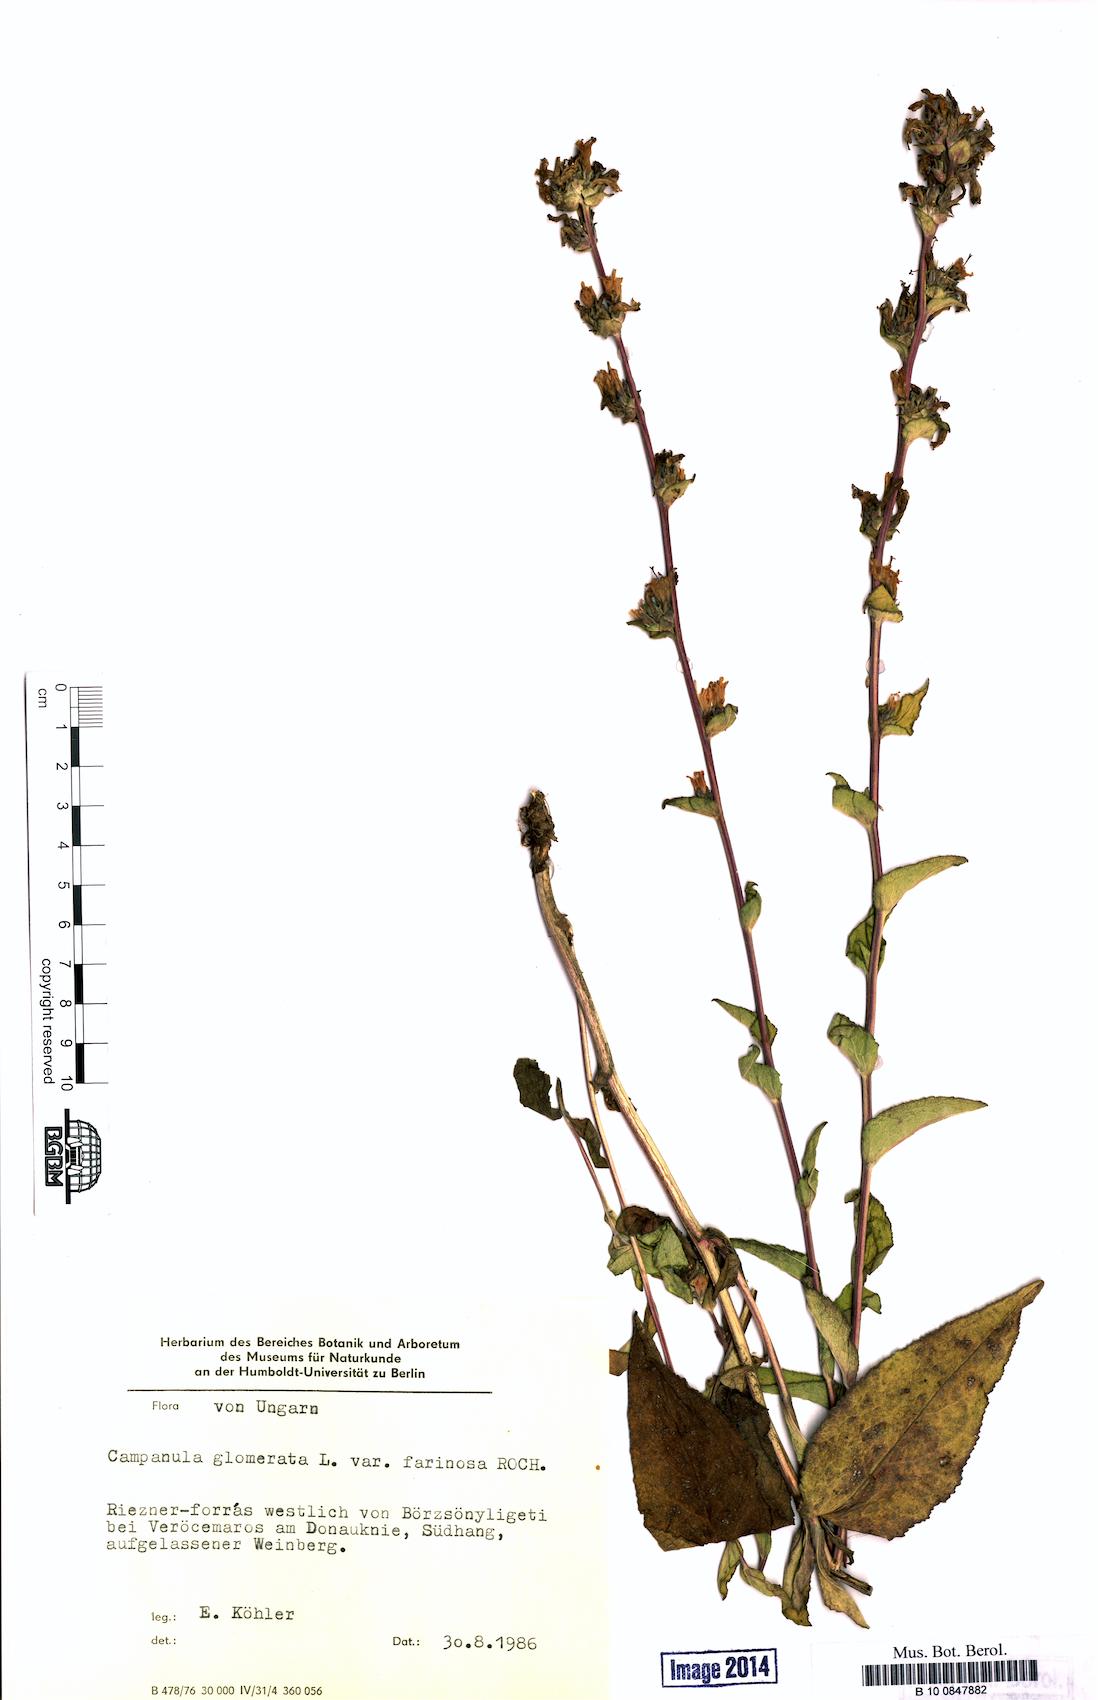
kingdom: Plantae
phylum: Tracheophyta
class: Magnoliopsida
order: Asterales
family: Campanulaceae
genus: Campanula
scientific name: Campanula glomerata
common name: Clustered bellflower
